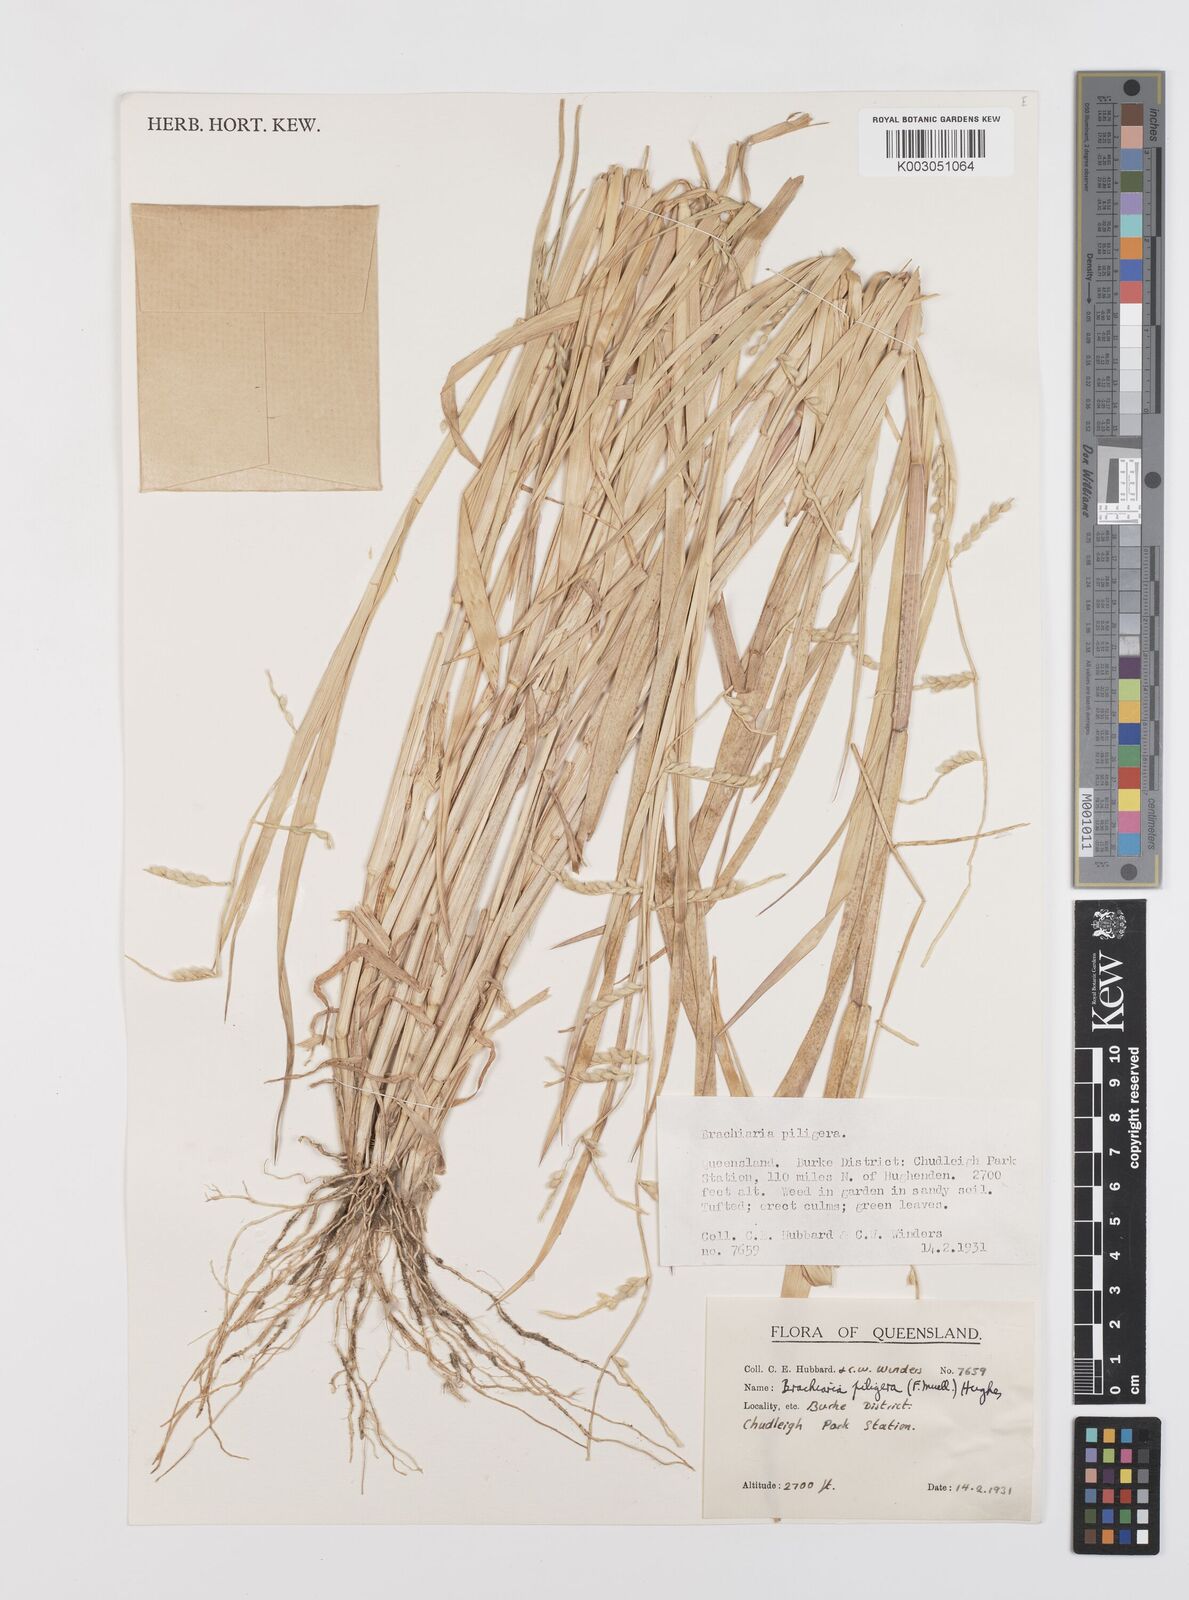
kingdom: Plantae
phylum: Tracheophyta
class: Liliopsida
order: Poales
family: Poaceae
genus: Urochloa
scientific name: Urochloa piligera
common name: Wattle signalgrass
